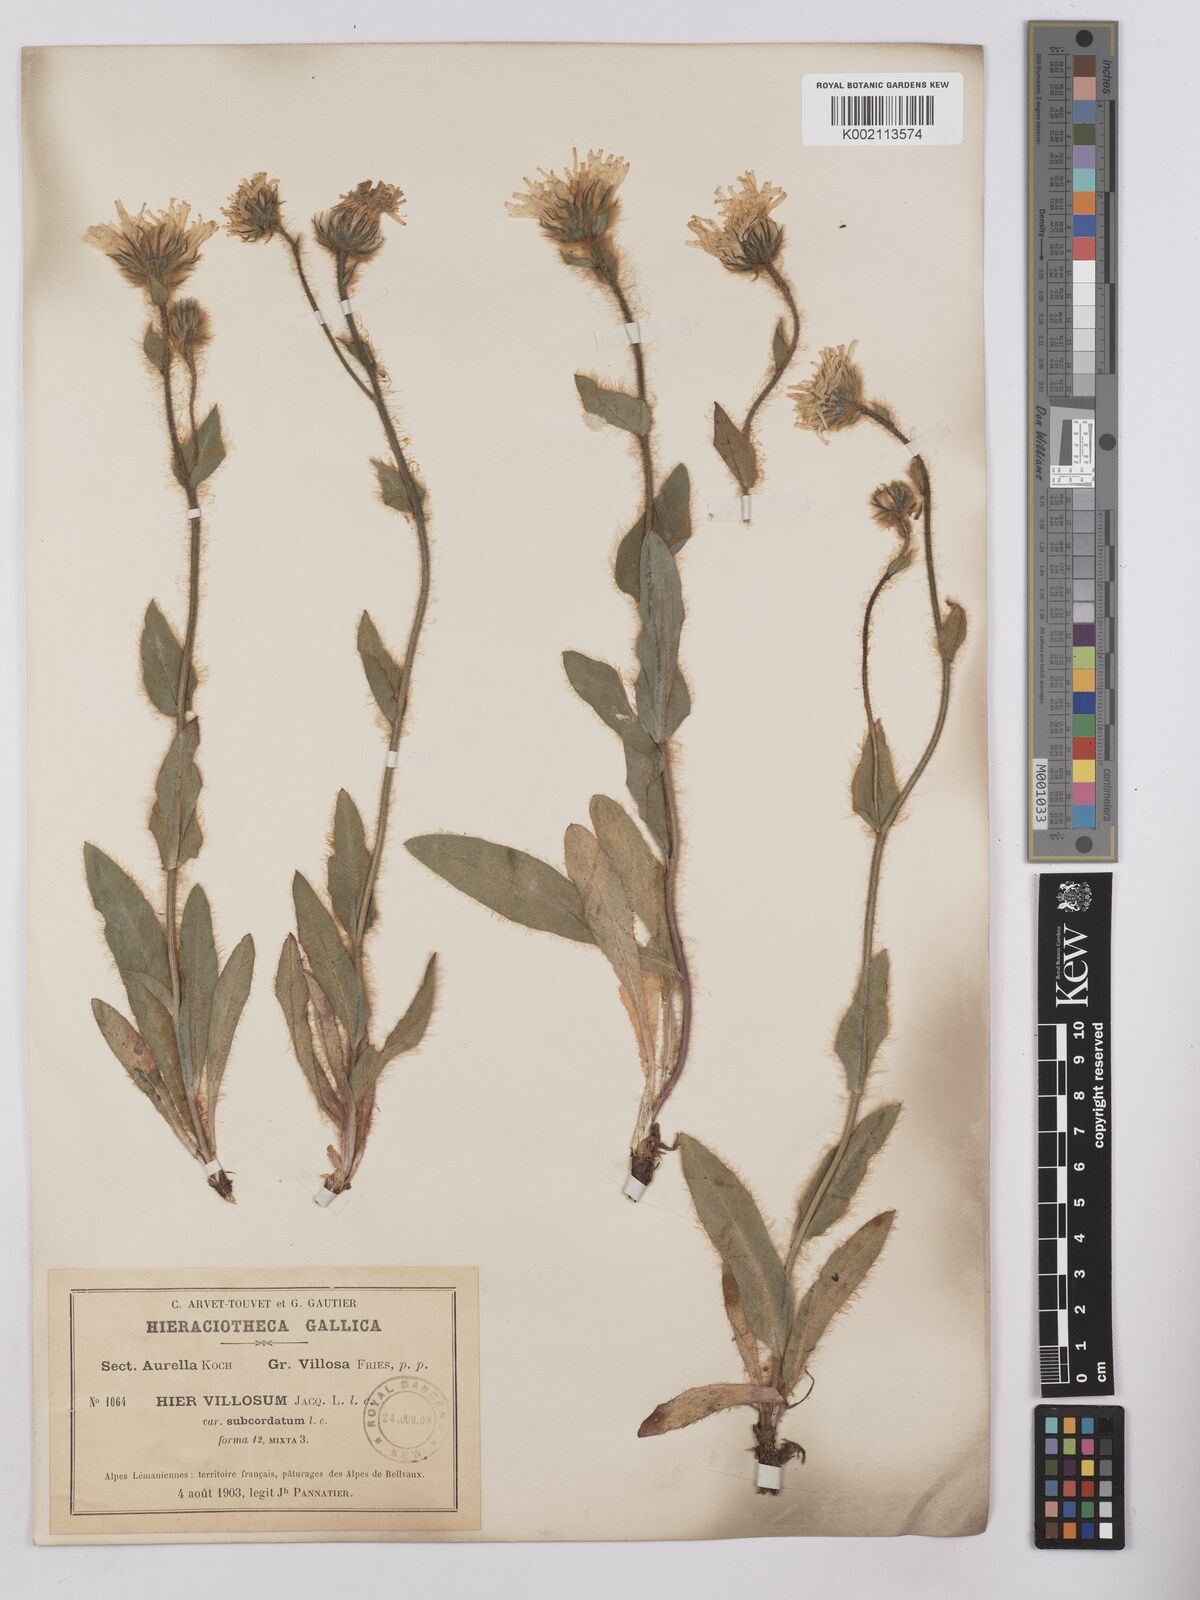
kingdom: Plantae
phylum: Tracheophyta
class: Magnoliopsida
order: Asterales
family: Asteraceae
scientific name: Asteraceae
